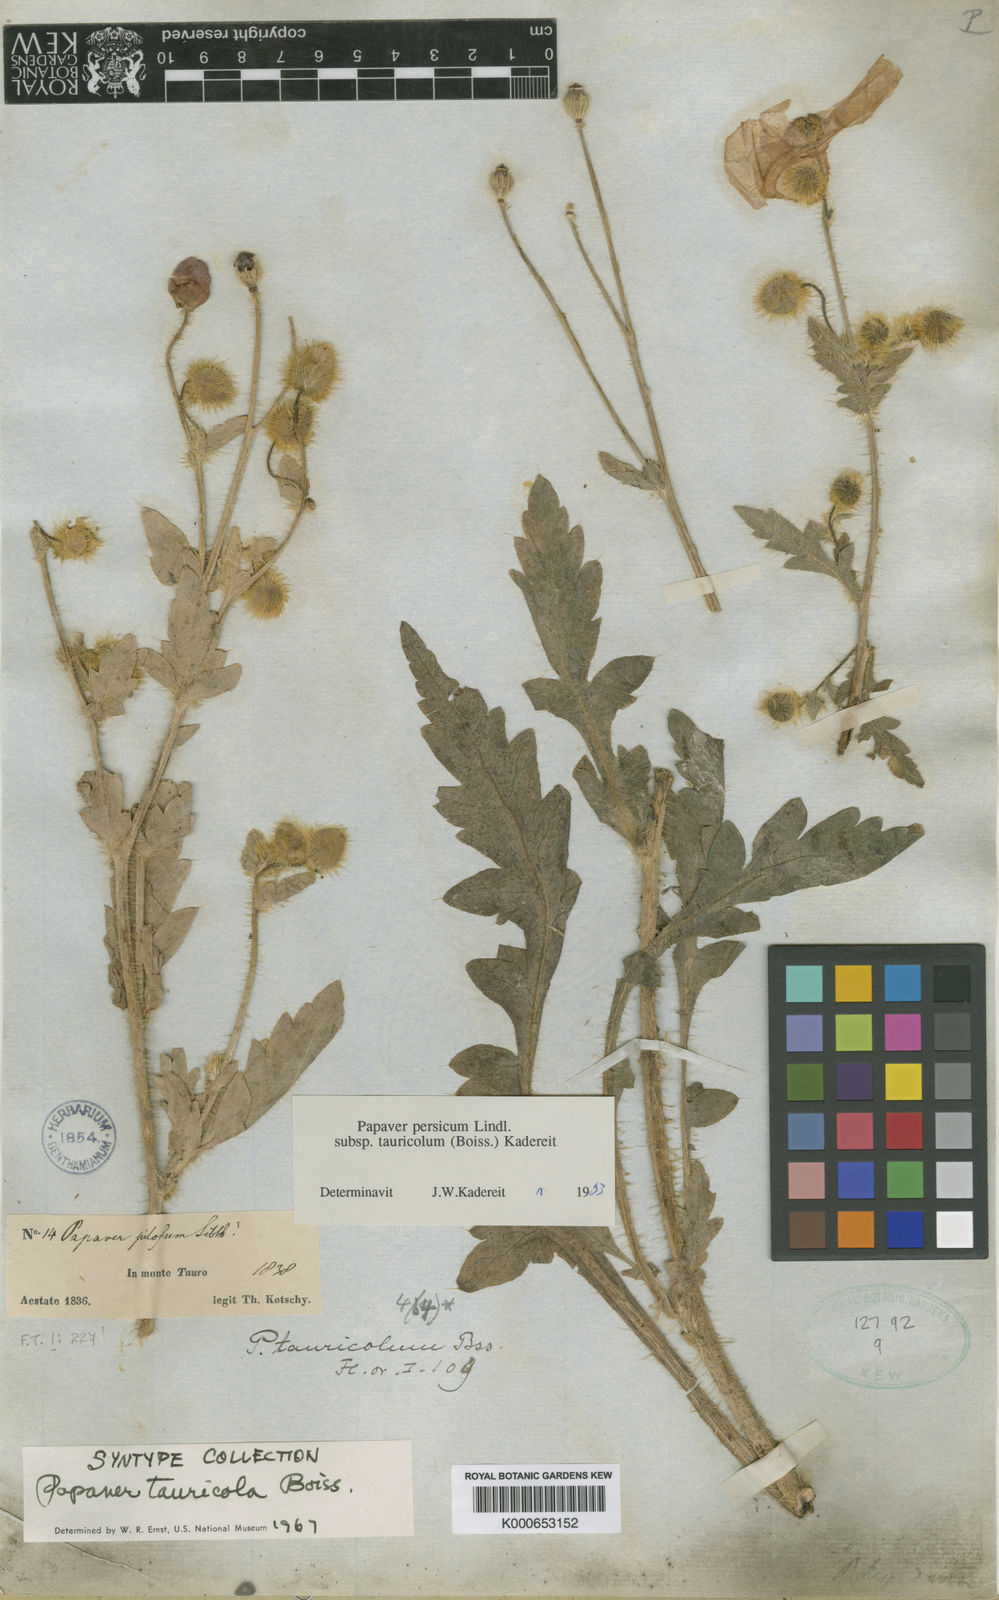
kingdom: Plantae
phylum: Tracheophyta
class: Magnoliopsida
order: Ranunculales
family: Papaveraceae
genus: Papaver
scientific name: Papaver persicum
